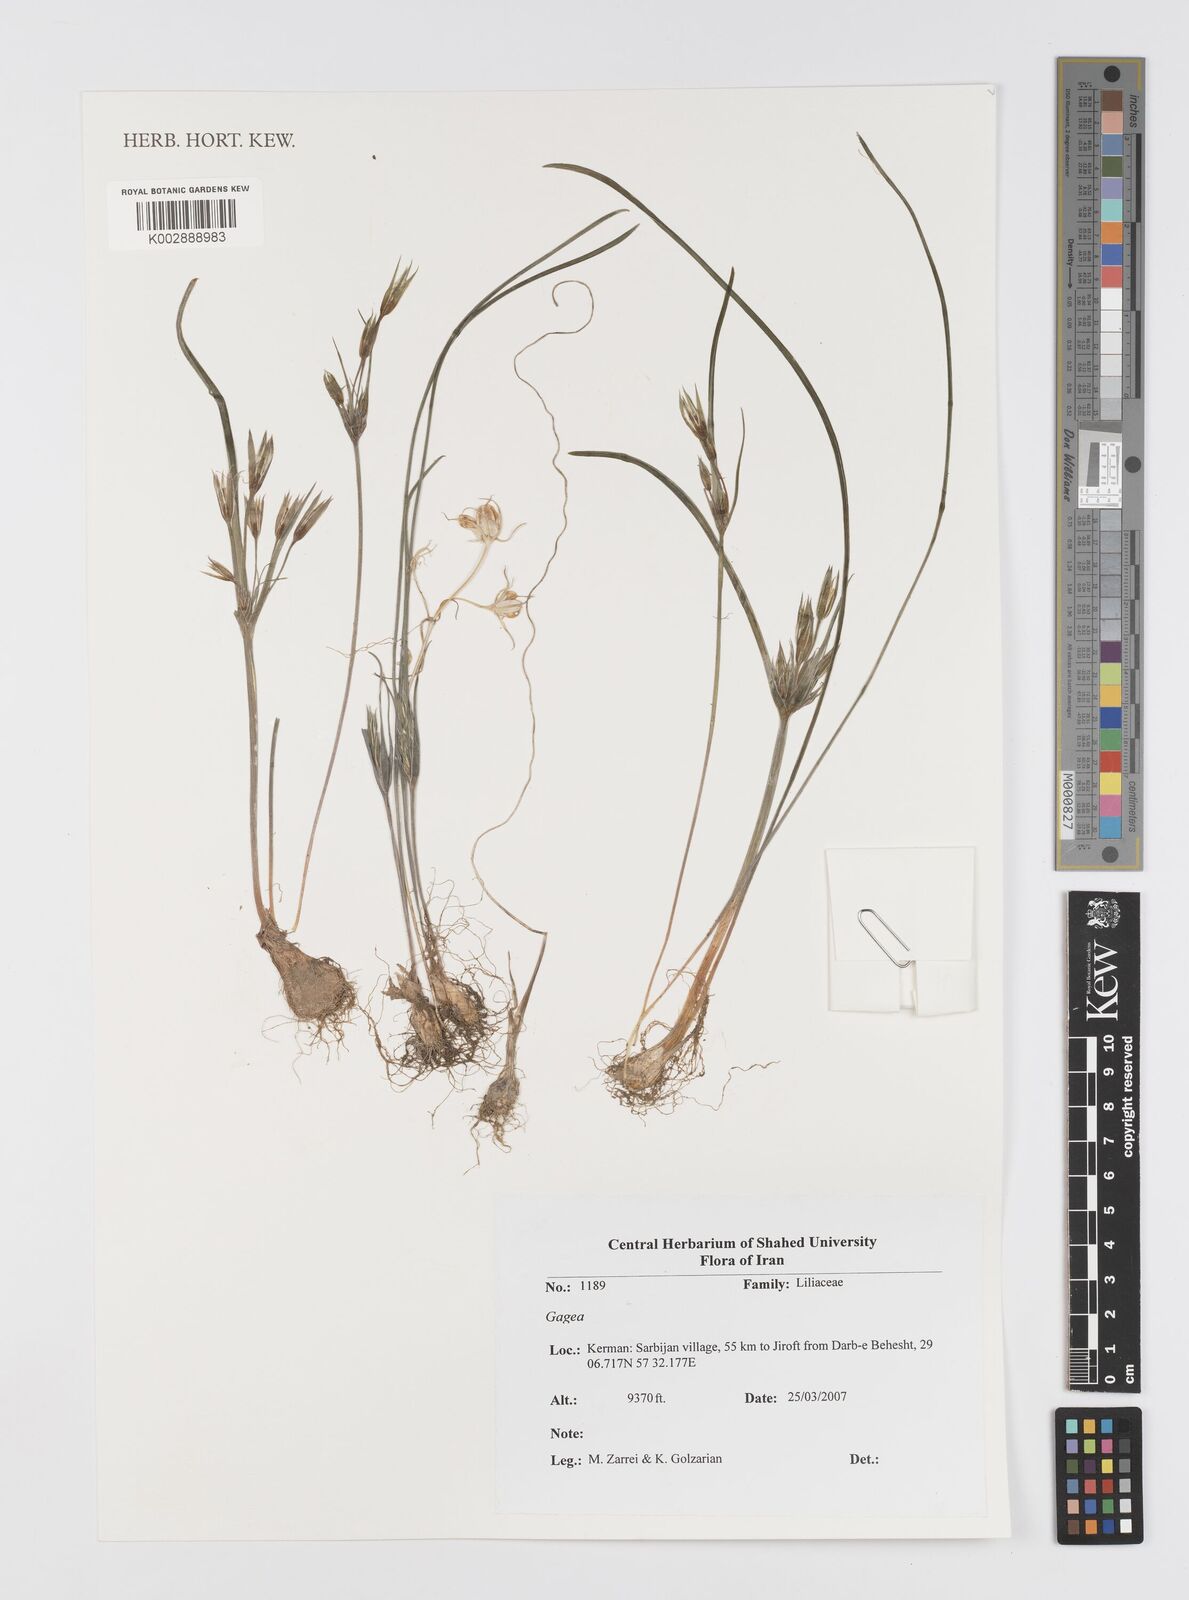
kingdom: Plantae
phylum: Tracheophyta
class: Liliopsida
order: Liliales
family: Liliaceae
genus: Gagea
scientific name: Gagea
